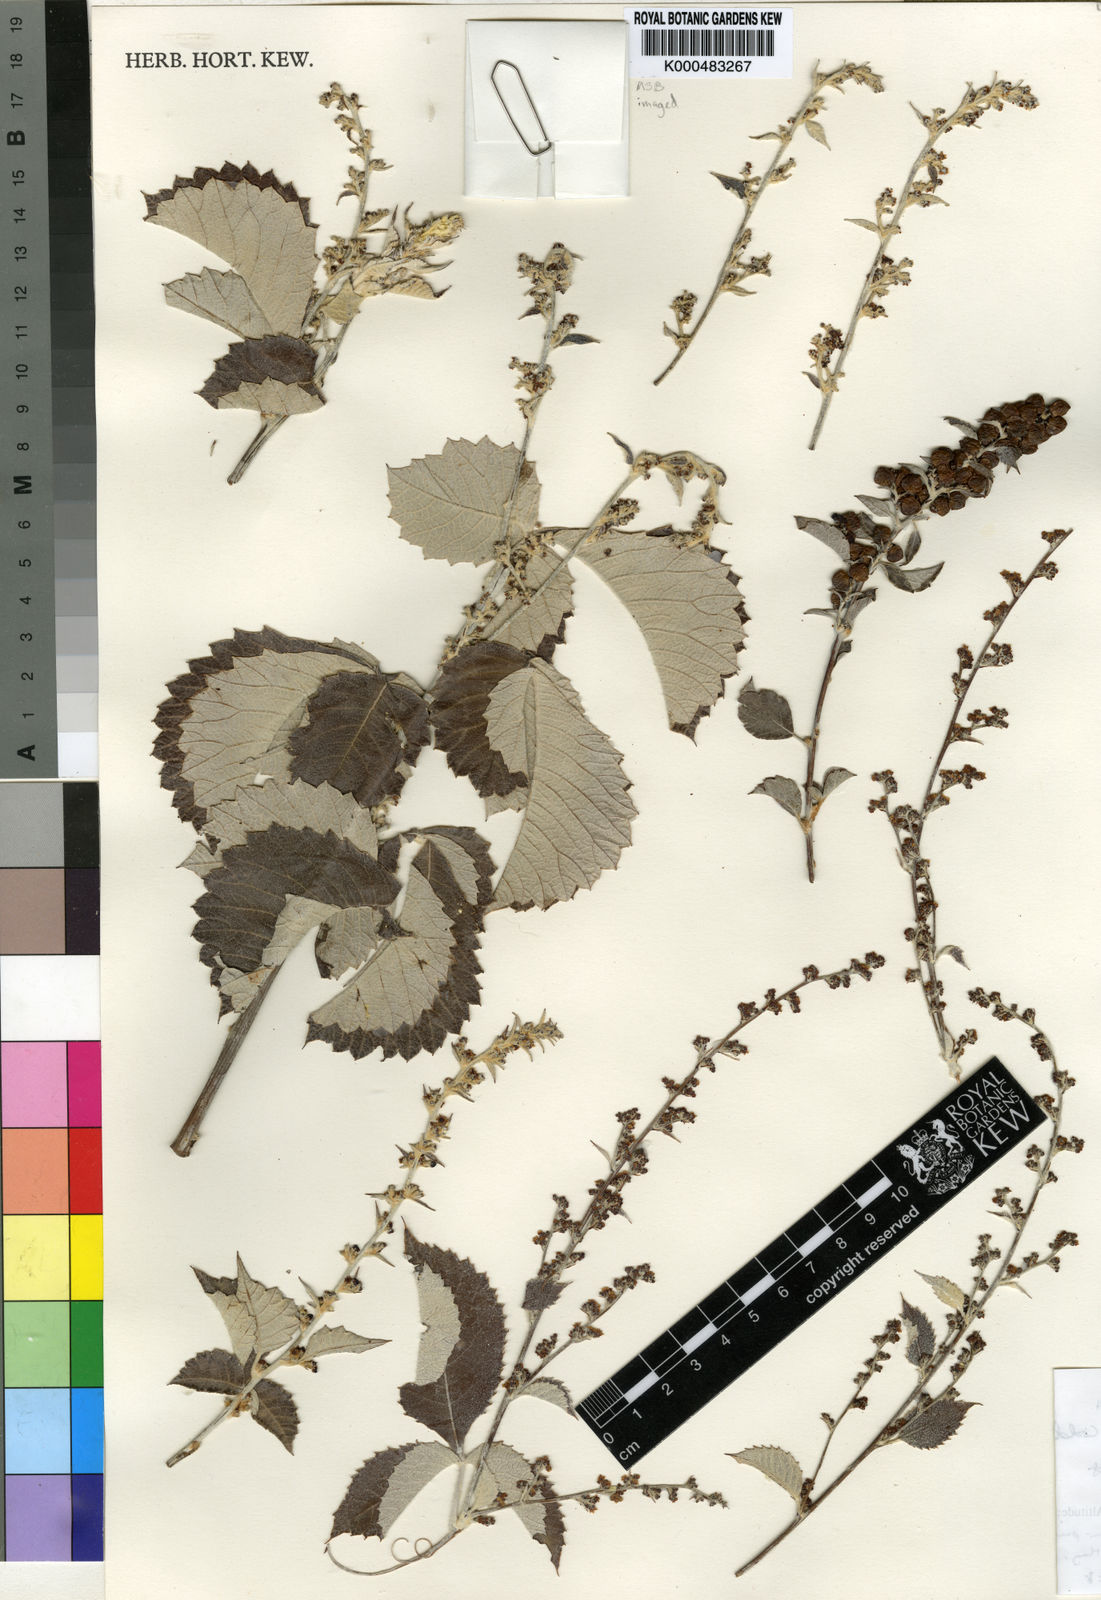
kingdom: Plantae
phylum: Tracheophyta
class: Magnoliopsida
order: Sapindales
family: Anacardiaceae
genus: Searsia
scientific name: Searsia batophylla
